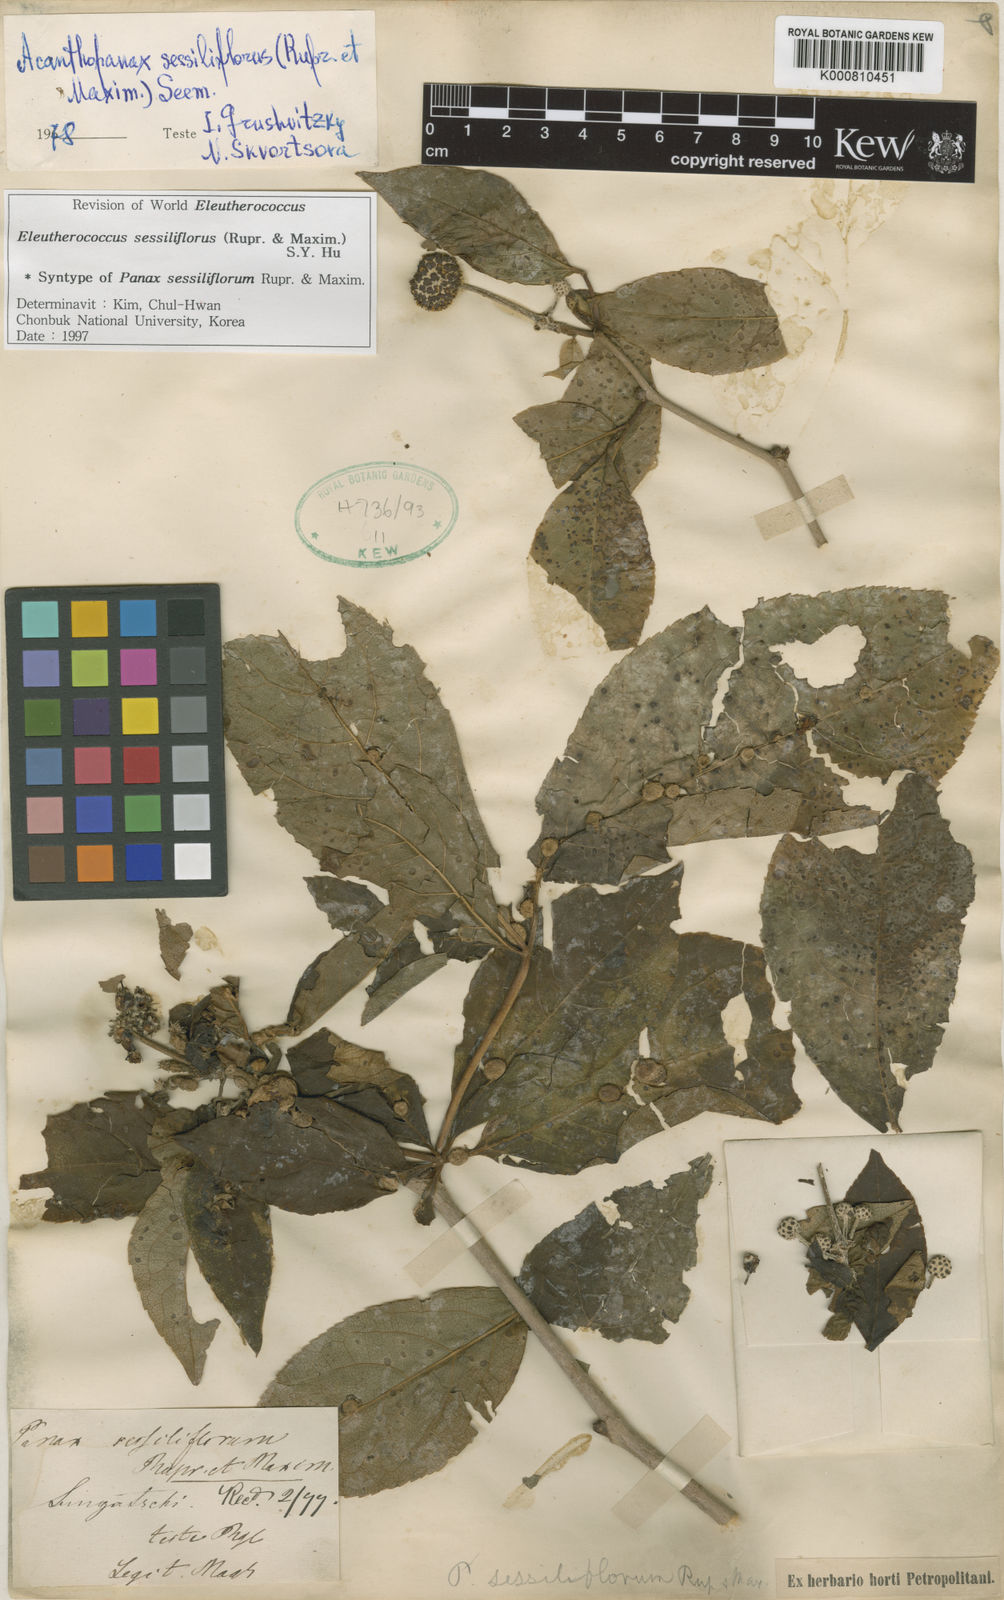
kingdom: Plantae
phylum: Tracheophyta
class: Magnoliopsida
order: Apiales
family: Araliaceae
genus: Eleutherococcus
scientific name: Eleutherococcus sessiliflorus
